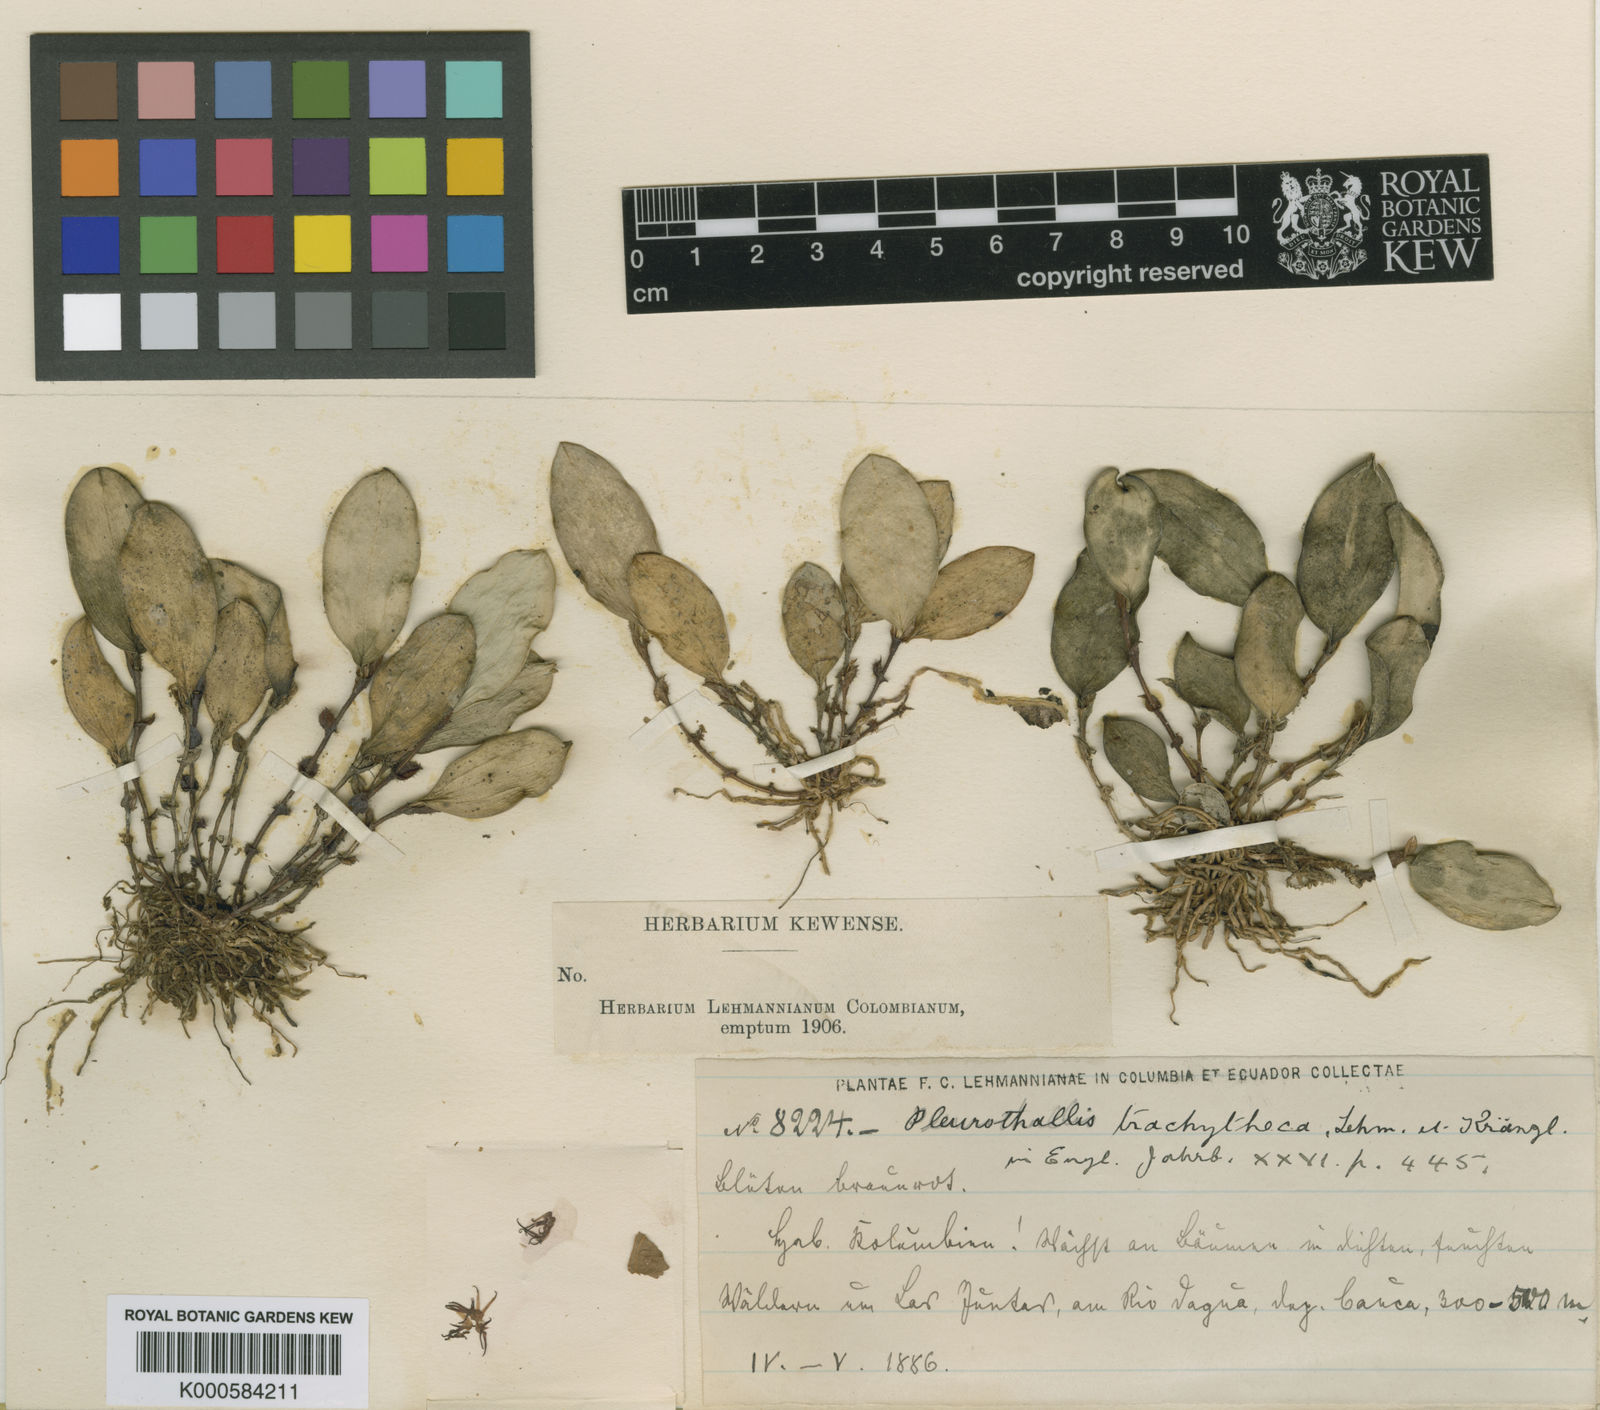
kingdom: Plantae
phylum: Tracheophyta
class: Liliopsida
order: Asparagales
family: Orchidaceae
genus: Trichosalpinx
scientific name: Trichosalpinx orbicularis
